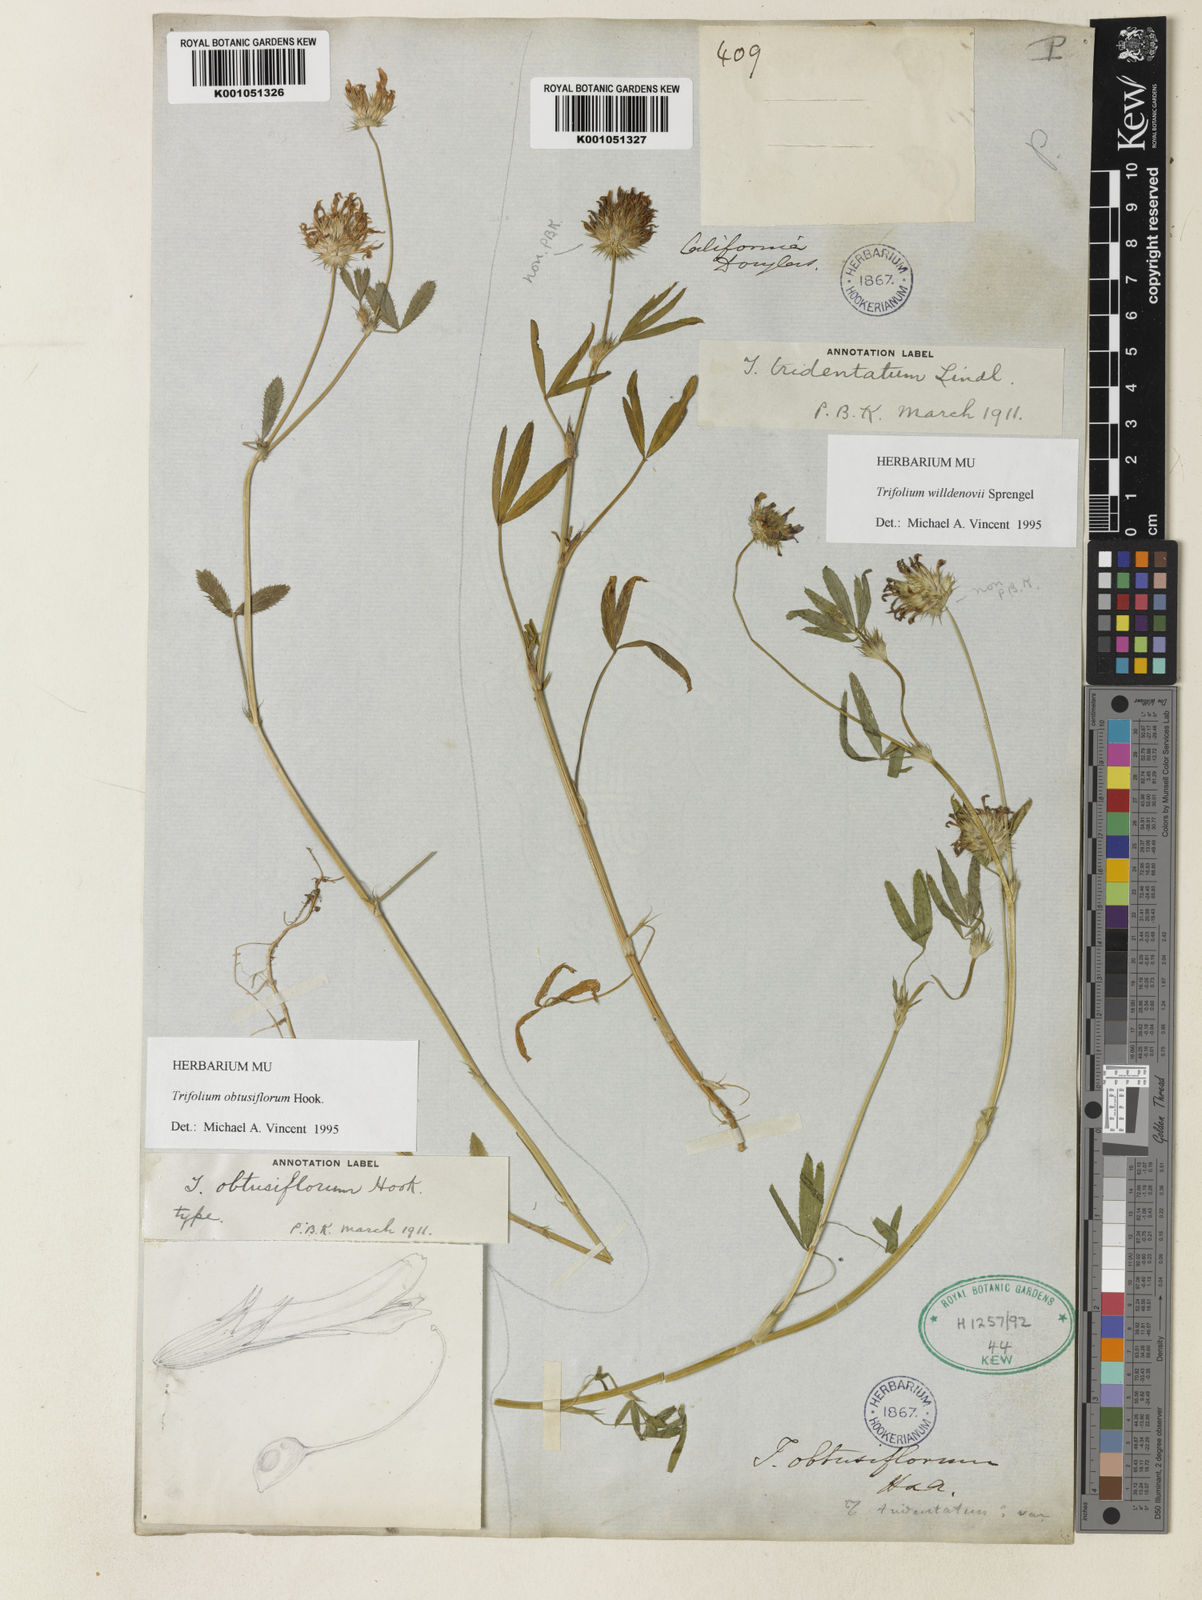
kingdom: Plantae
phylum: Tracheophyta
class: Magnoliopsida
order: Fabales
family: Fabaceae
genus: Trifolium
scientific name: Trifolium obtusiflorum
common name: Clammy clover
